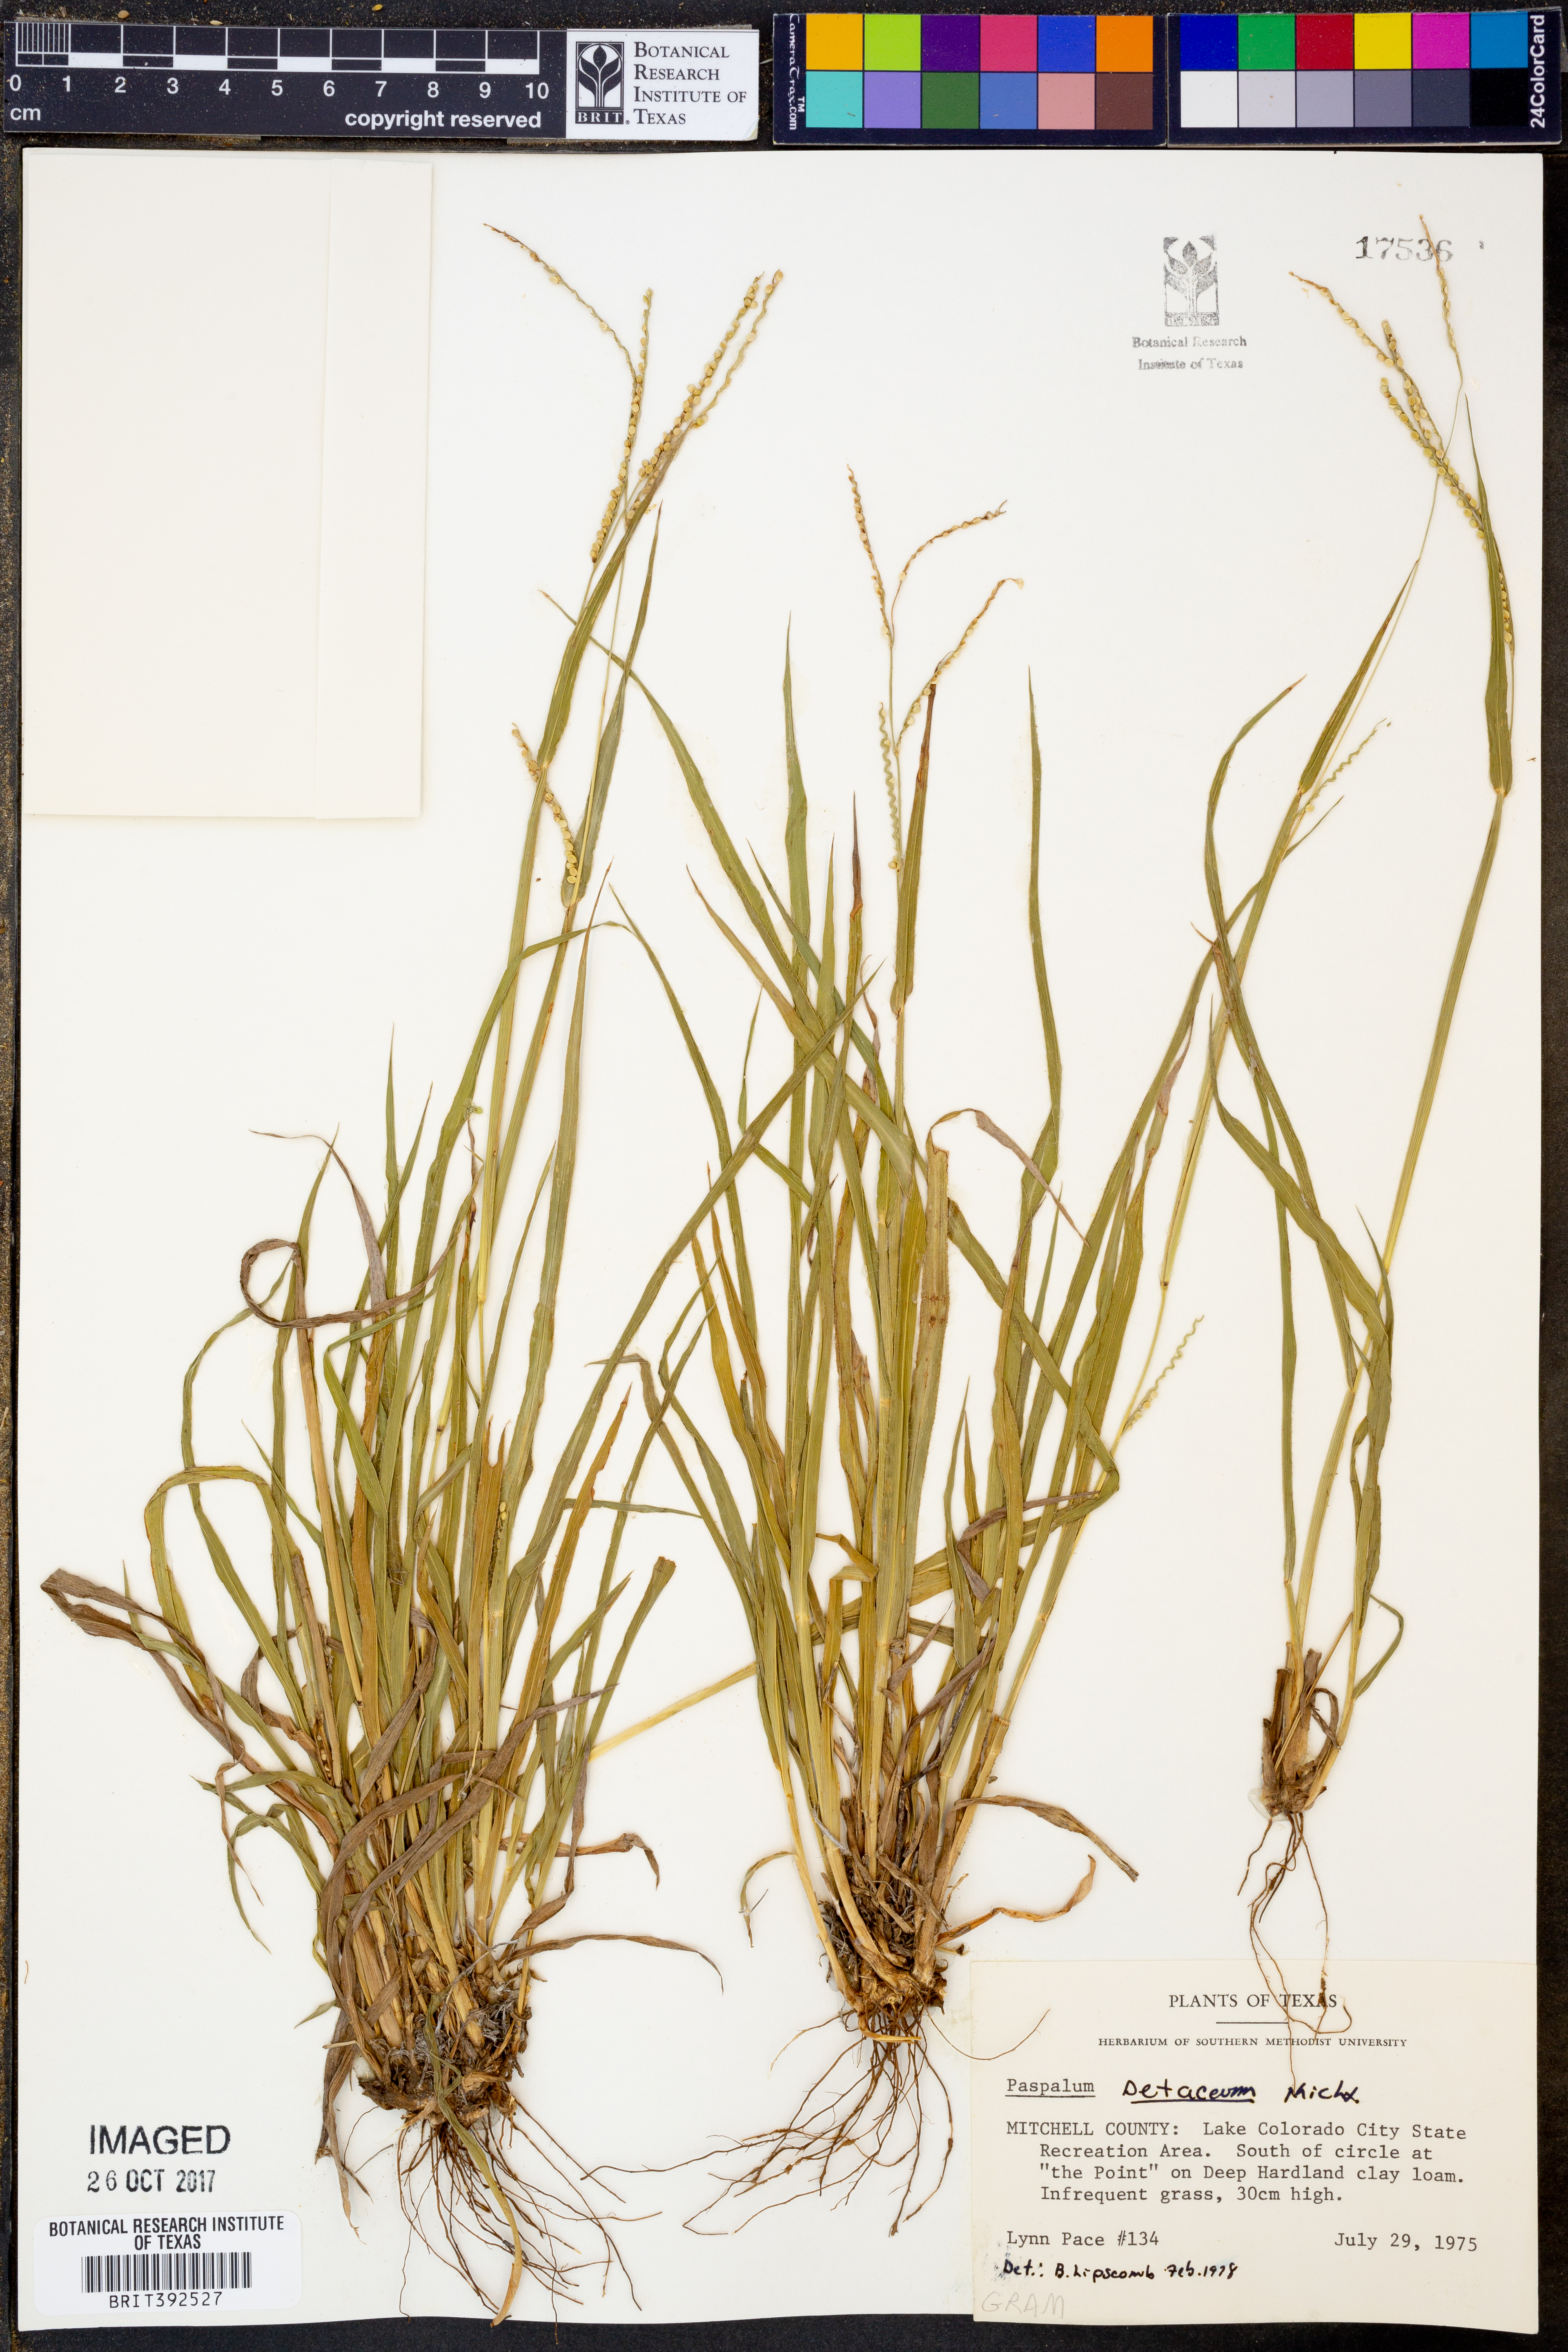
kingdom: Plantae
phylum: Tracheophyta
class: Liliopsida
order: Poales
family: Poaceae
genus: Paspalum
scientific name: Paspalum setaceum
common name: Slender paspalum
